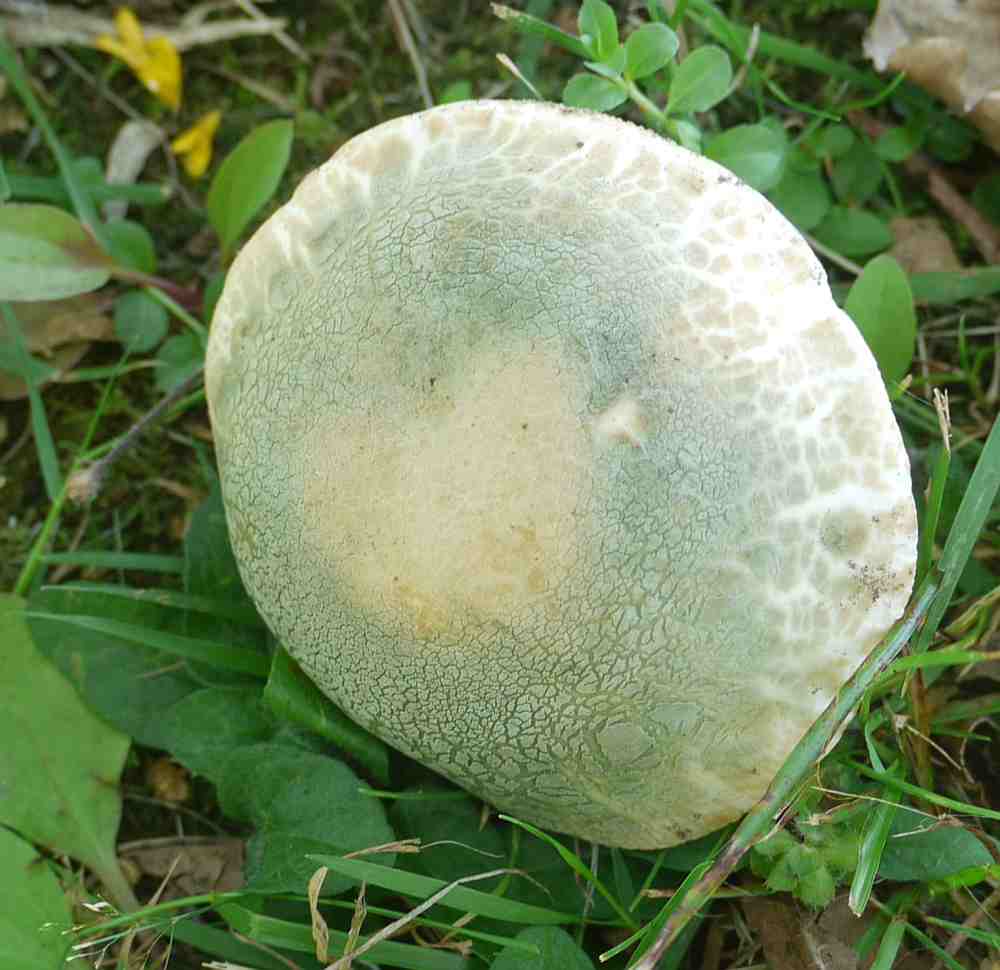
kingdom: Fungi
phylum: Basidiomycota
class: Agaricomycetes
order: Russulales
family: Russulaceae
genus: Russula
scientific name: Russula virescens
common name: spanskgrøn skørhat
